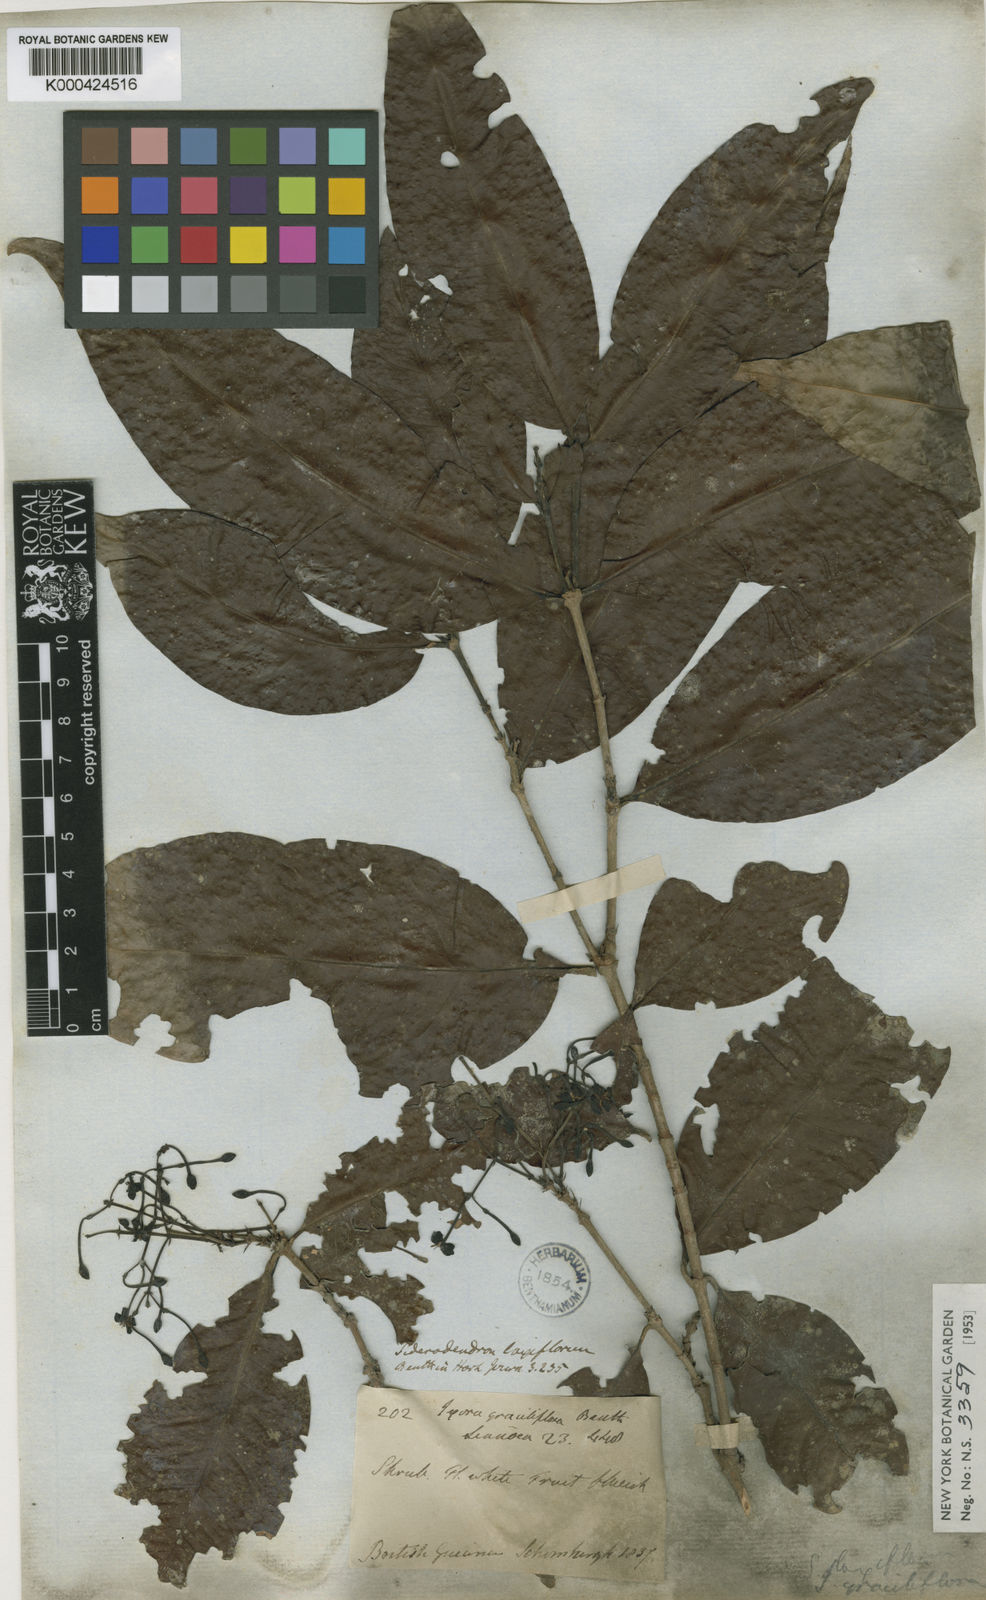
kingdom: Plantae
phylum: Tracheophyta
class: Magnoliopsida
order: Gentianales
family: Rubiaceae
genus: Ixora
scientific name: Ixora graciliflora
